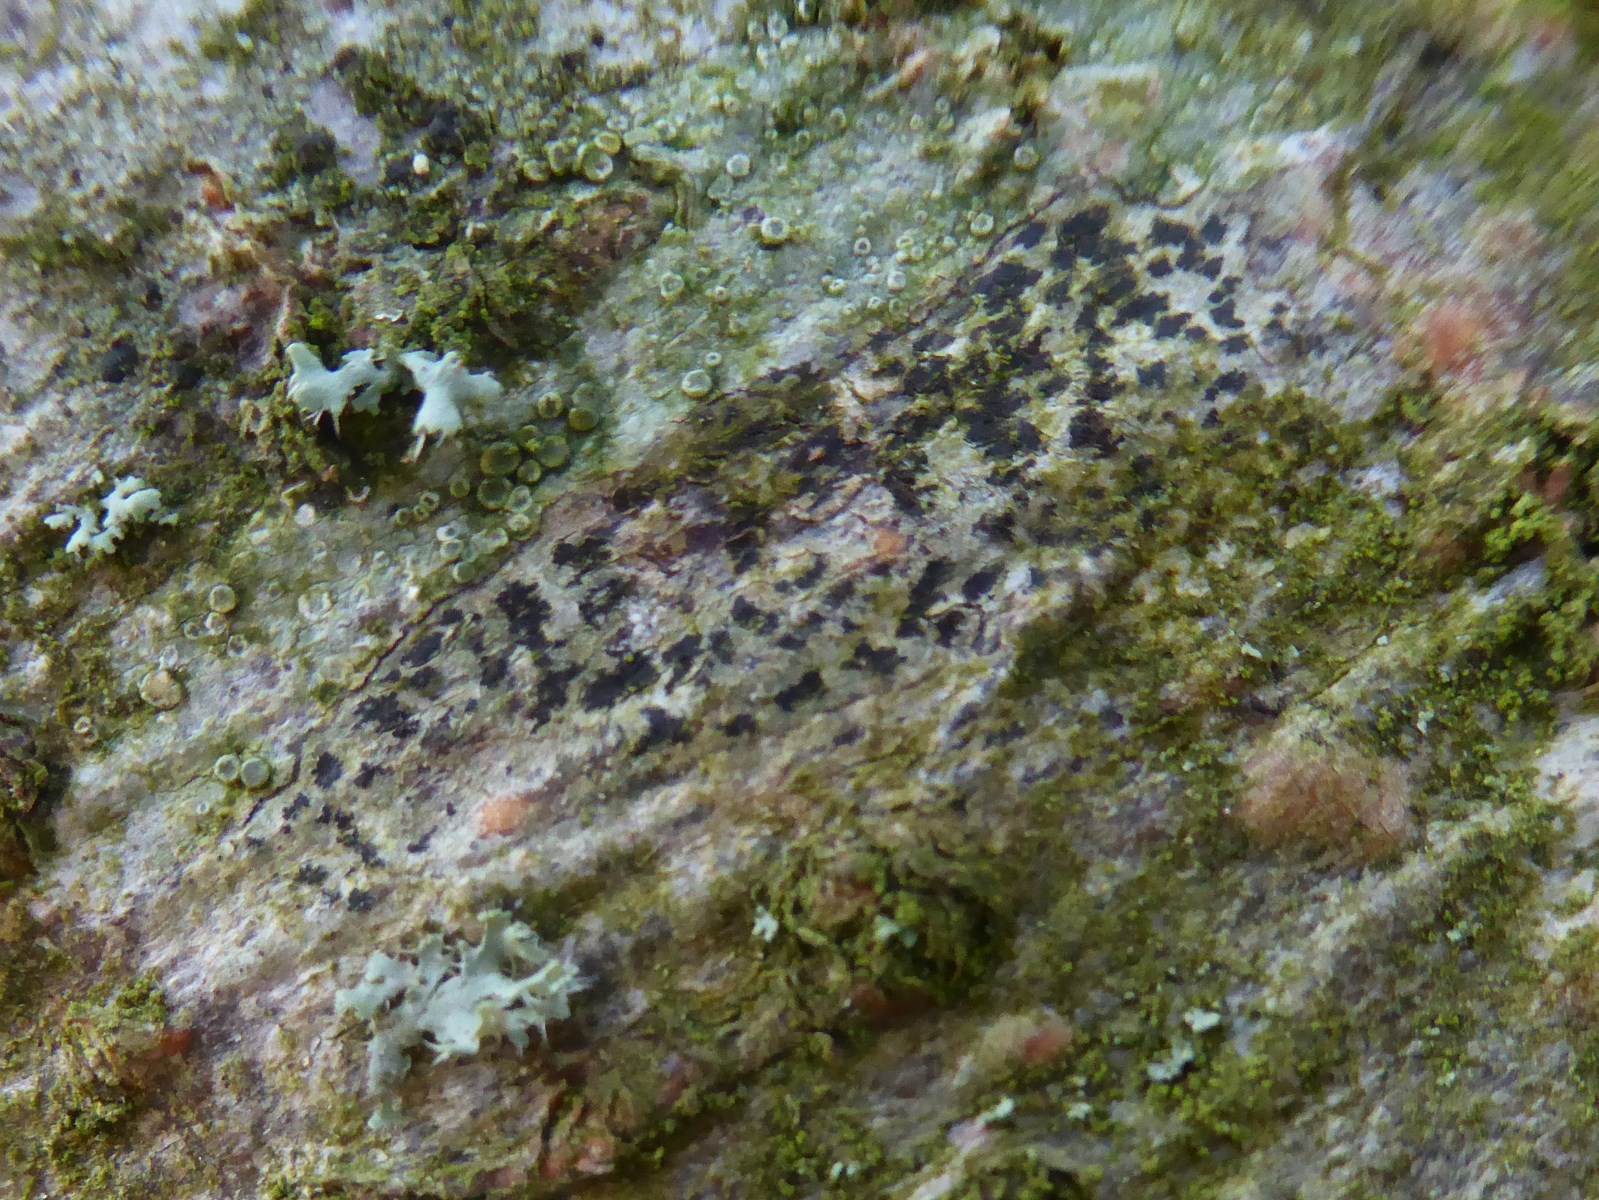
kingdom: Fungi
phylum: Ascomycota
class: Arthoniomycetes
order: Arthoniales
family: Arthoniaceae
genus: Arthonia
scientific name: Arthonia radiata
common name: stjerne-pletlav
